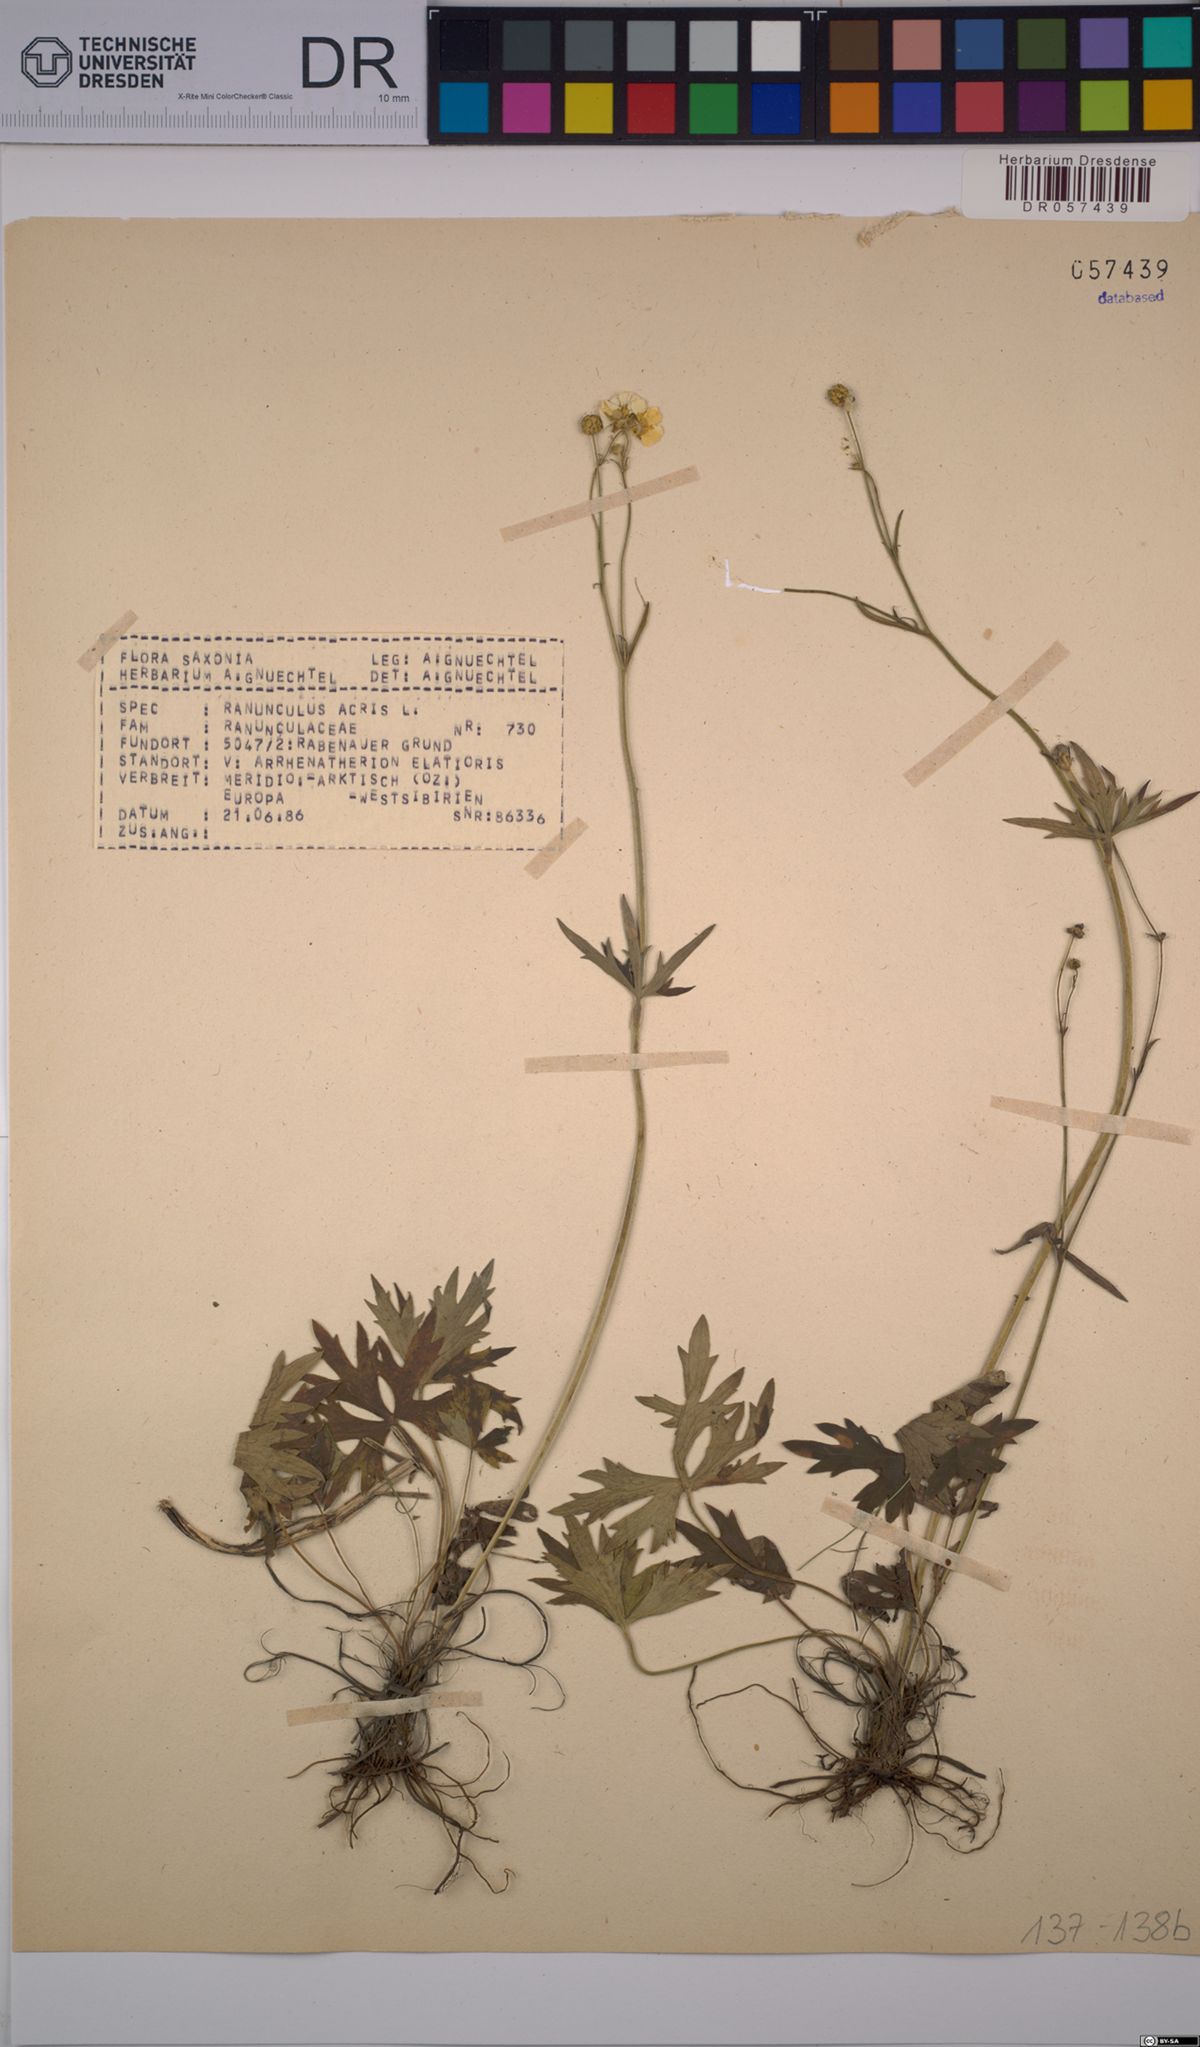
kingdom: Plantae
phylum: Tracheophyta
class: Magnoliopsida
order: Ranunculales
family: Ranunculaceae
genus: Ranunculus
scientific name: Ranunculus acris
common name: Meadow buttercup
